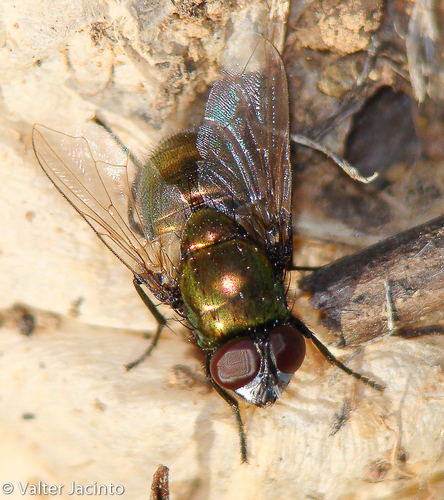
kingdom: Animalia
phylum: Arthropoda
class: Insecta
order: Diptera
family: Muscidae
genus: Neomyia
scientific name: Neomyia cornicina
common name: House fly
